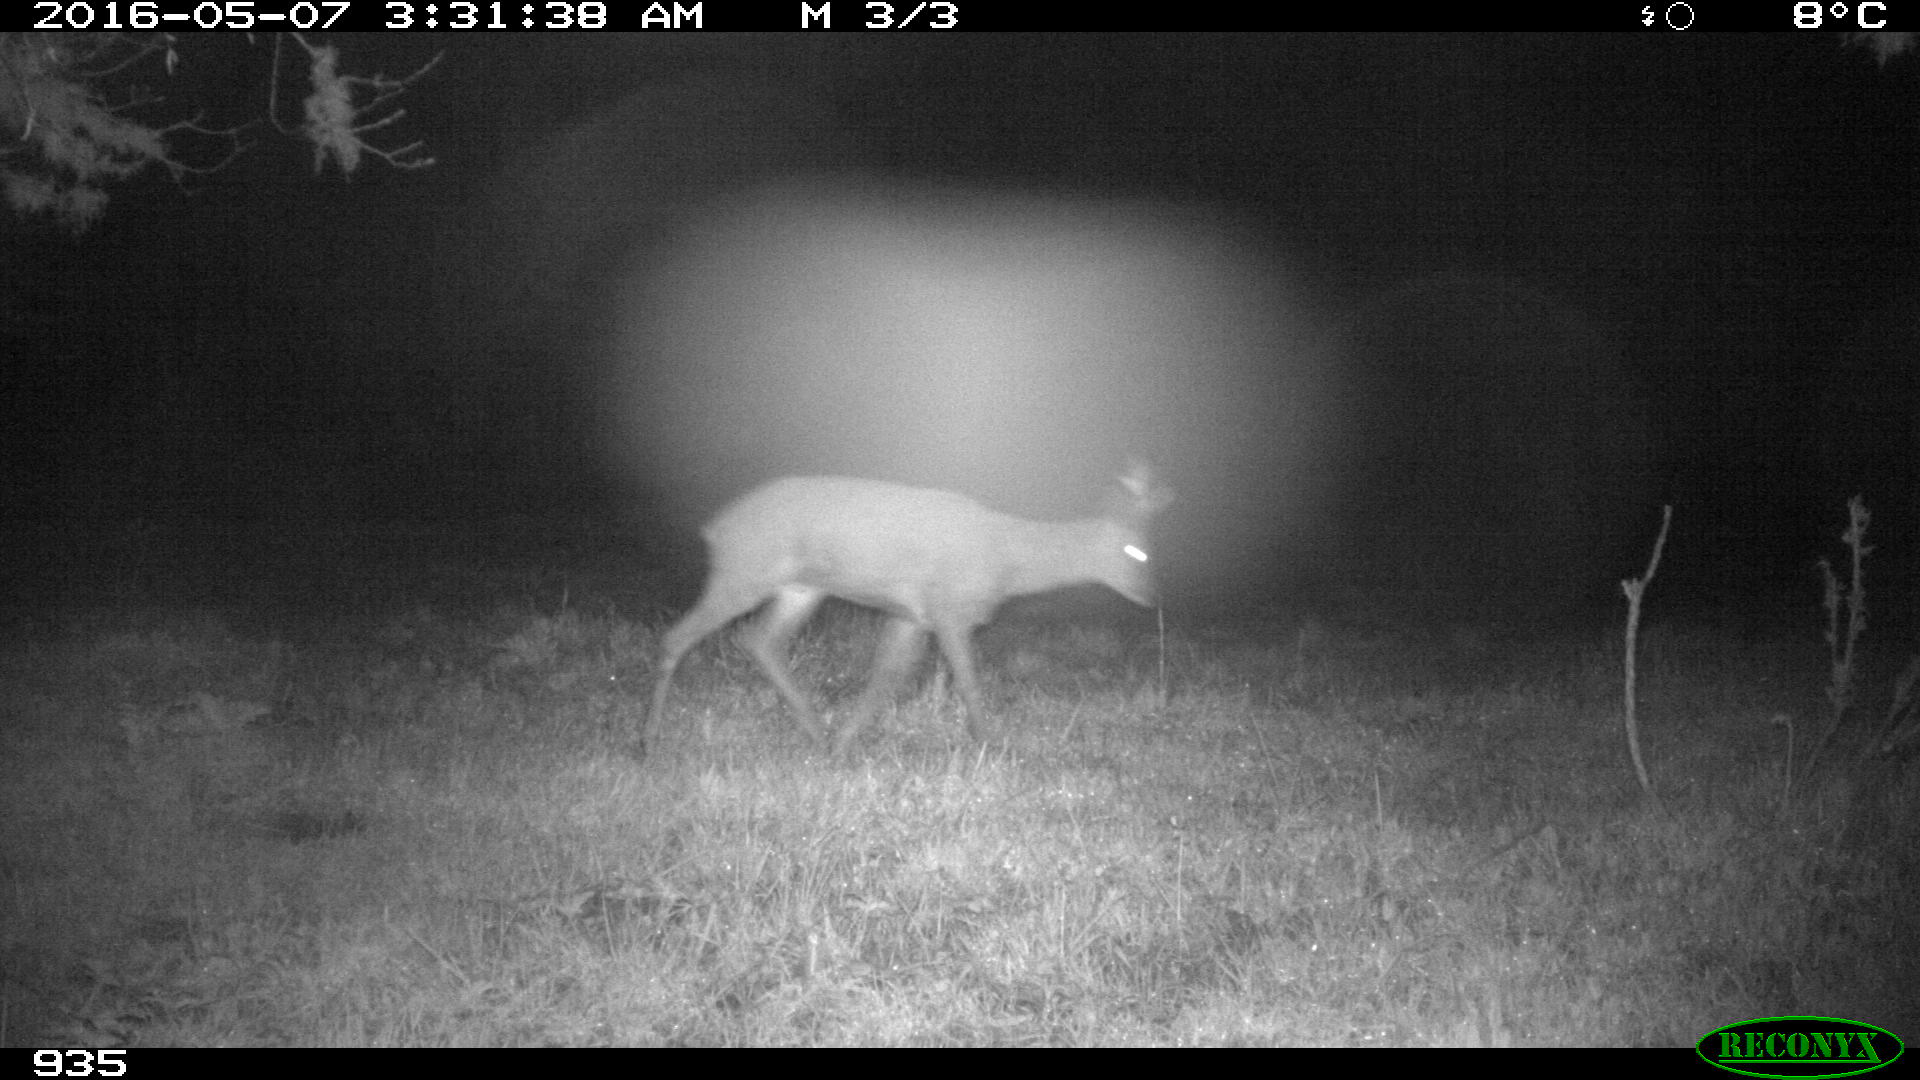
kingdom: Animalia
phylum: Chordata
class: Mammalia
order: Artiodactyla
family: Cervidae
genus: Capreolus
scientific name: Capreolus capreolus
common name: Western roe deer
